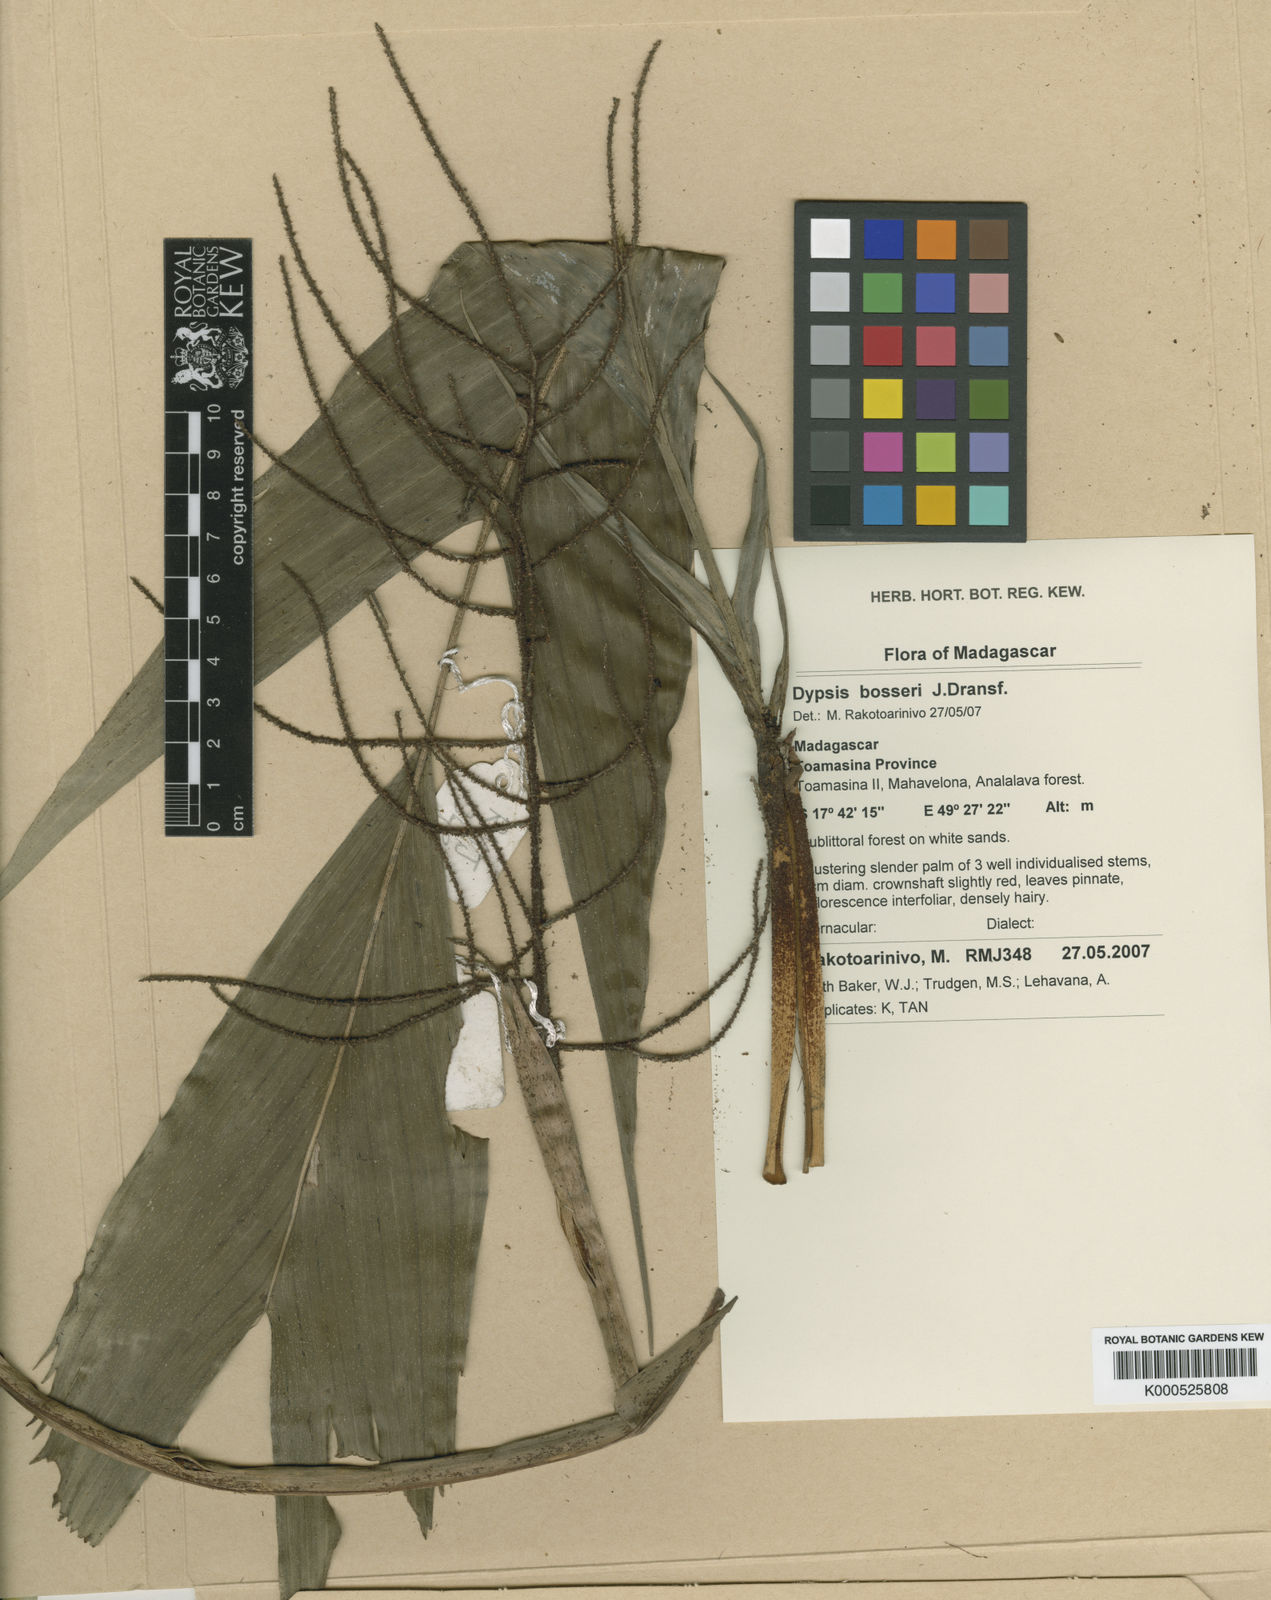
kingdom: Plantae
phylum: Tracheophyta
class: Liliopsida
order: Arecales
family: Arecaceae
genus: Dypsis
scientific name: Dypsis bosseri
